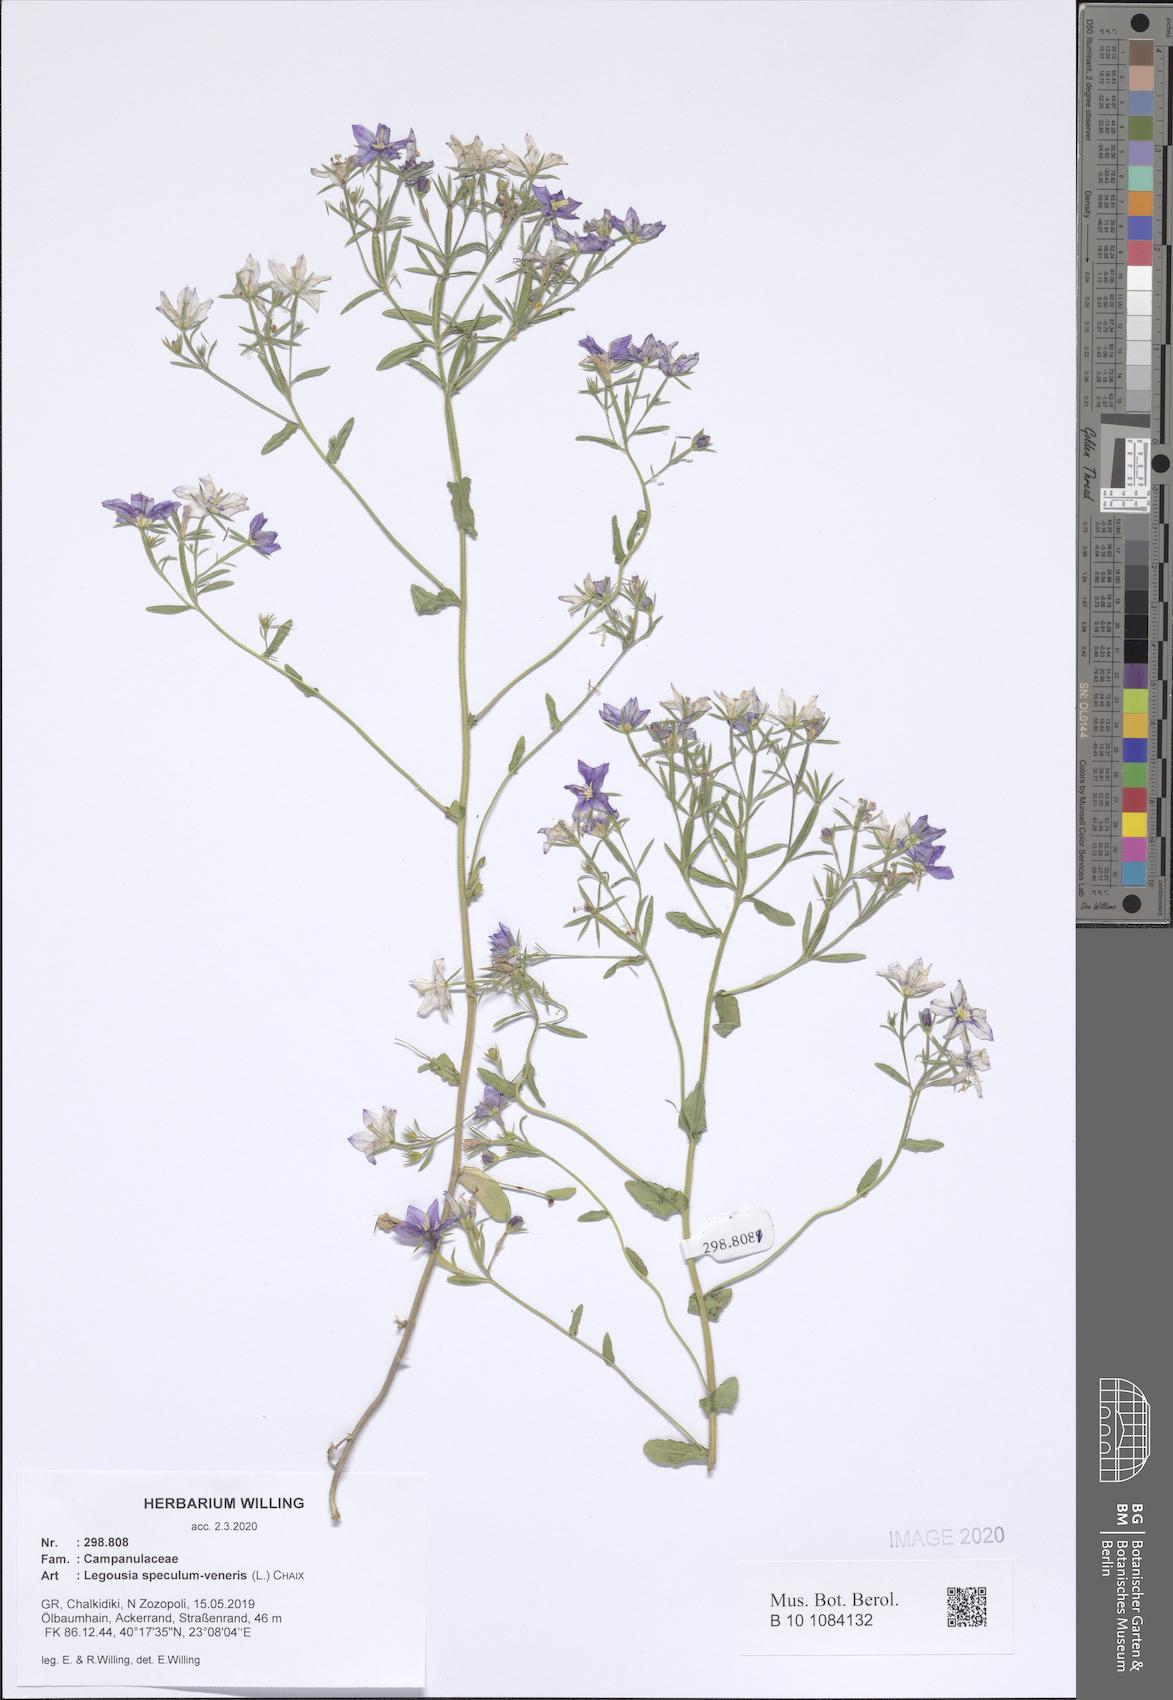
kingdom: Plantae
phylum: Tracheophyta
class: Magnoliopsida
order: Asterales
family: Campanulaceae
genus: Legousia
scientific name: Legousia speculum-veneris
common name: Large venus's-looking-glass
